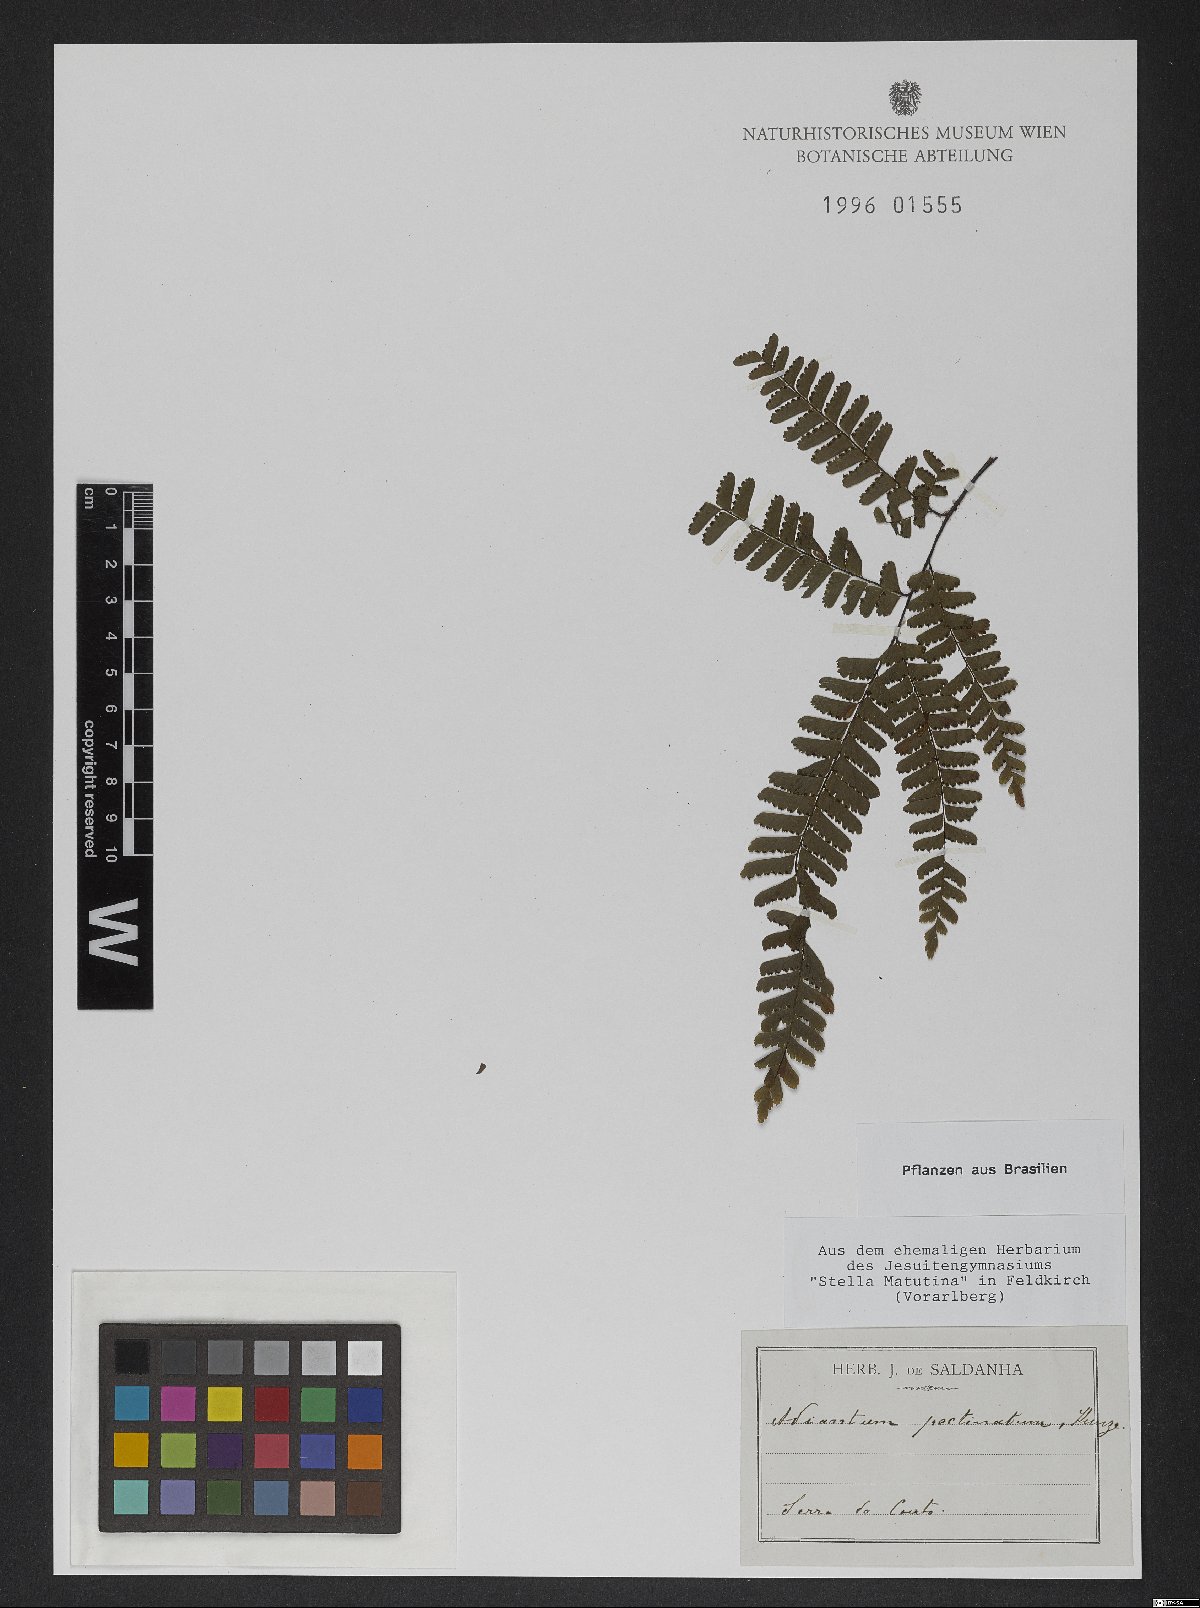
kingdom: Plantae
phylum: Tracheophyta
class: Polypodiopsida
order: Polypodiales
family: Pteridaceae
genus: Adiantum
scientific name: Adiantum pectinatum
